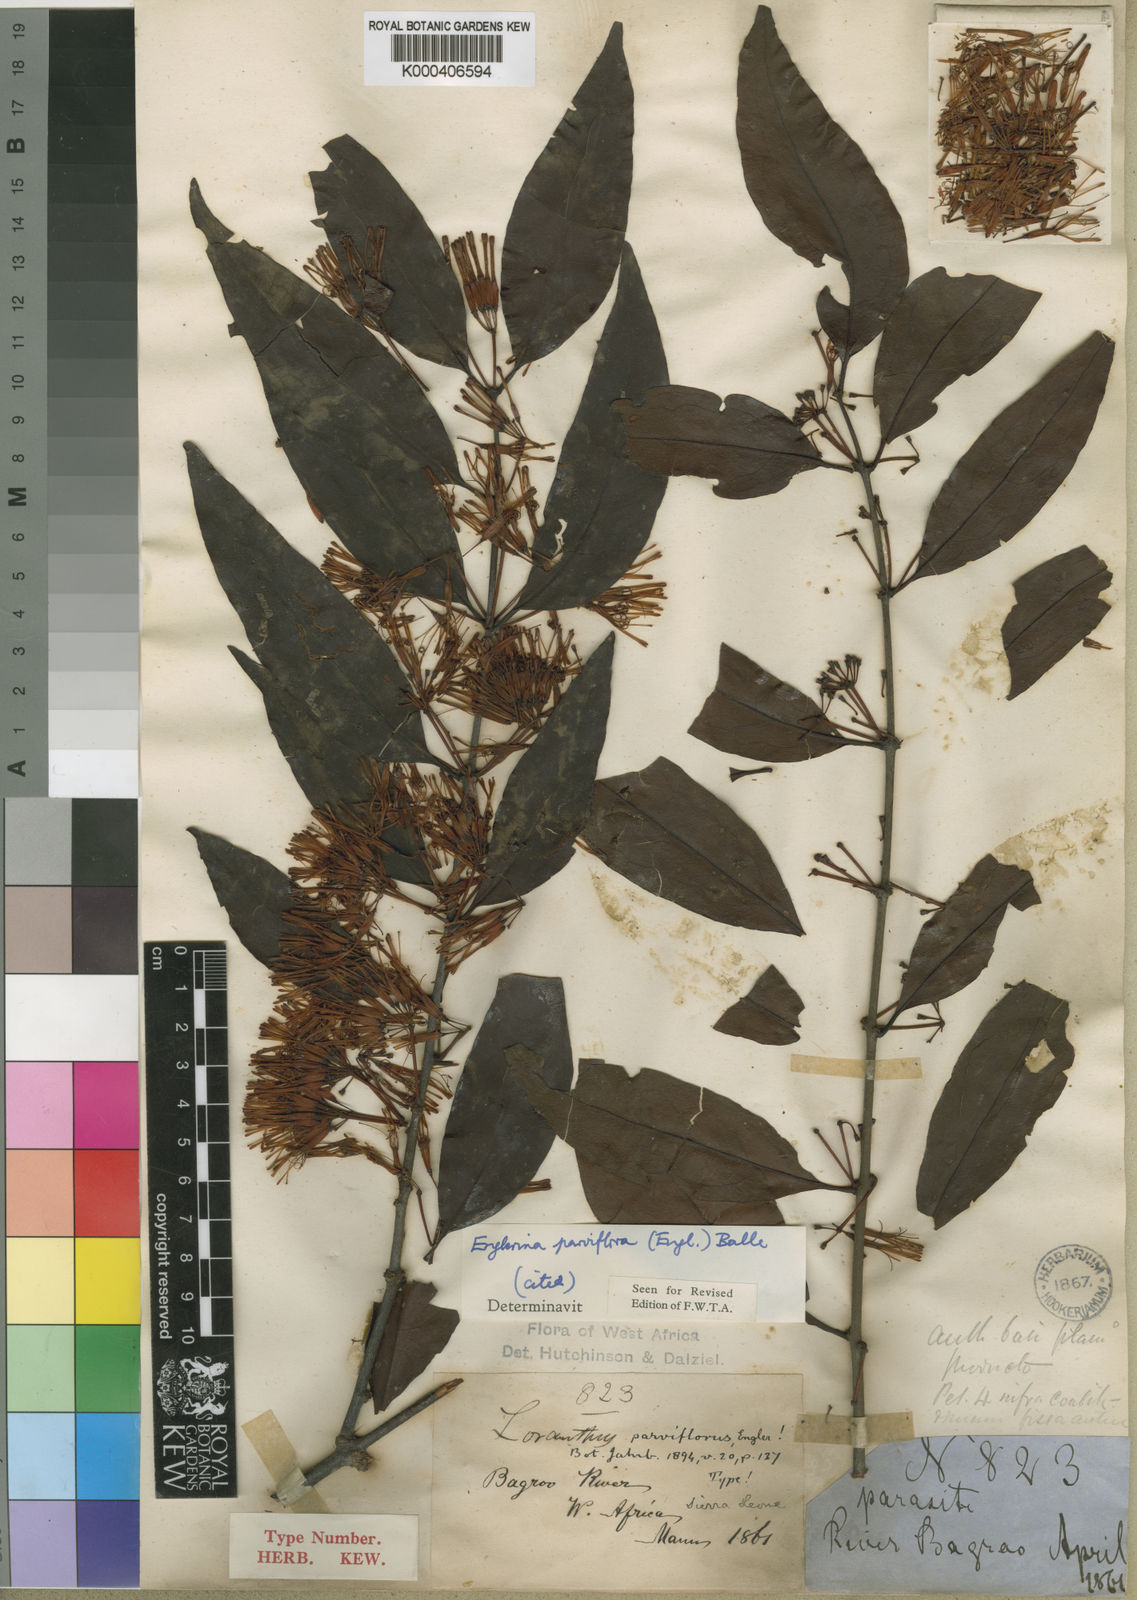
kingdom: Plantae
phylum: Tracheophyta
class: Magnoliopsida
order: Santalales
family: Loranthaceae
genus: Englerina
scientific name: Englerina parviflora
